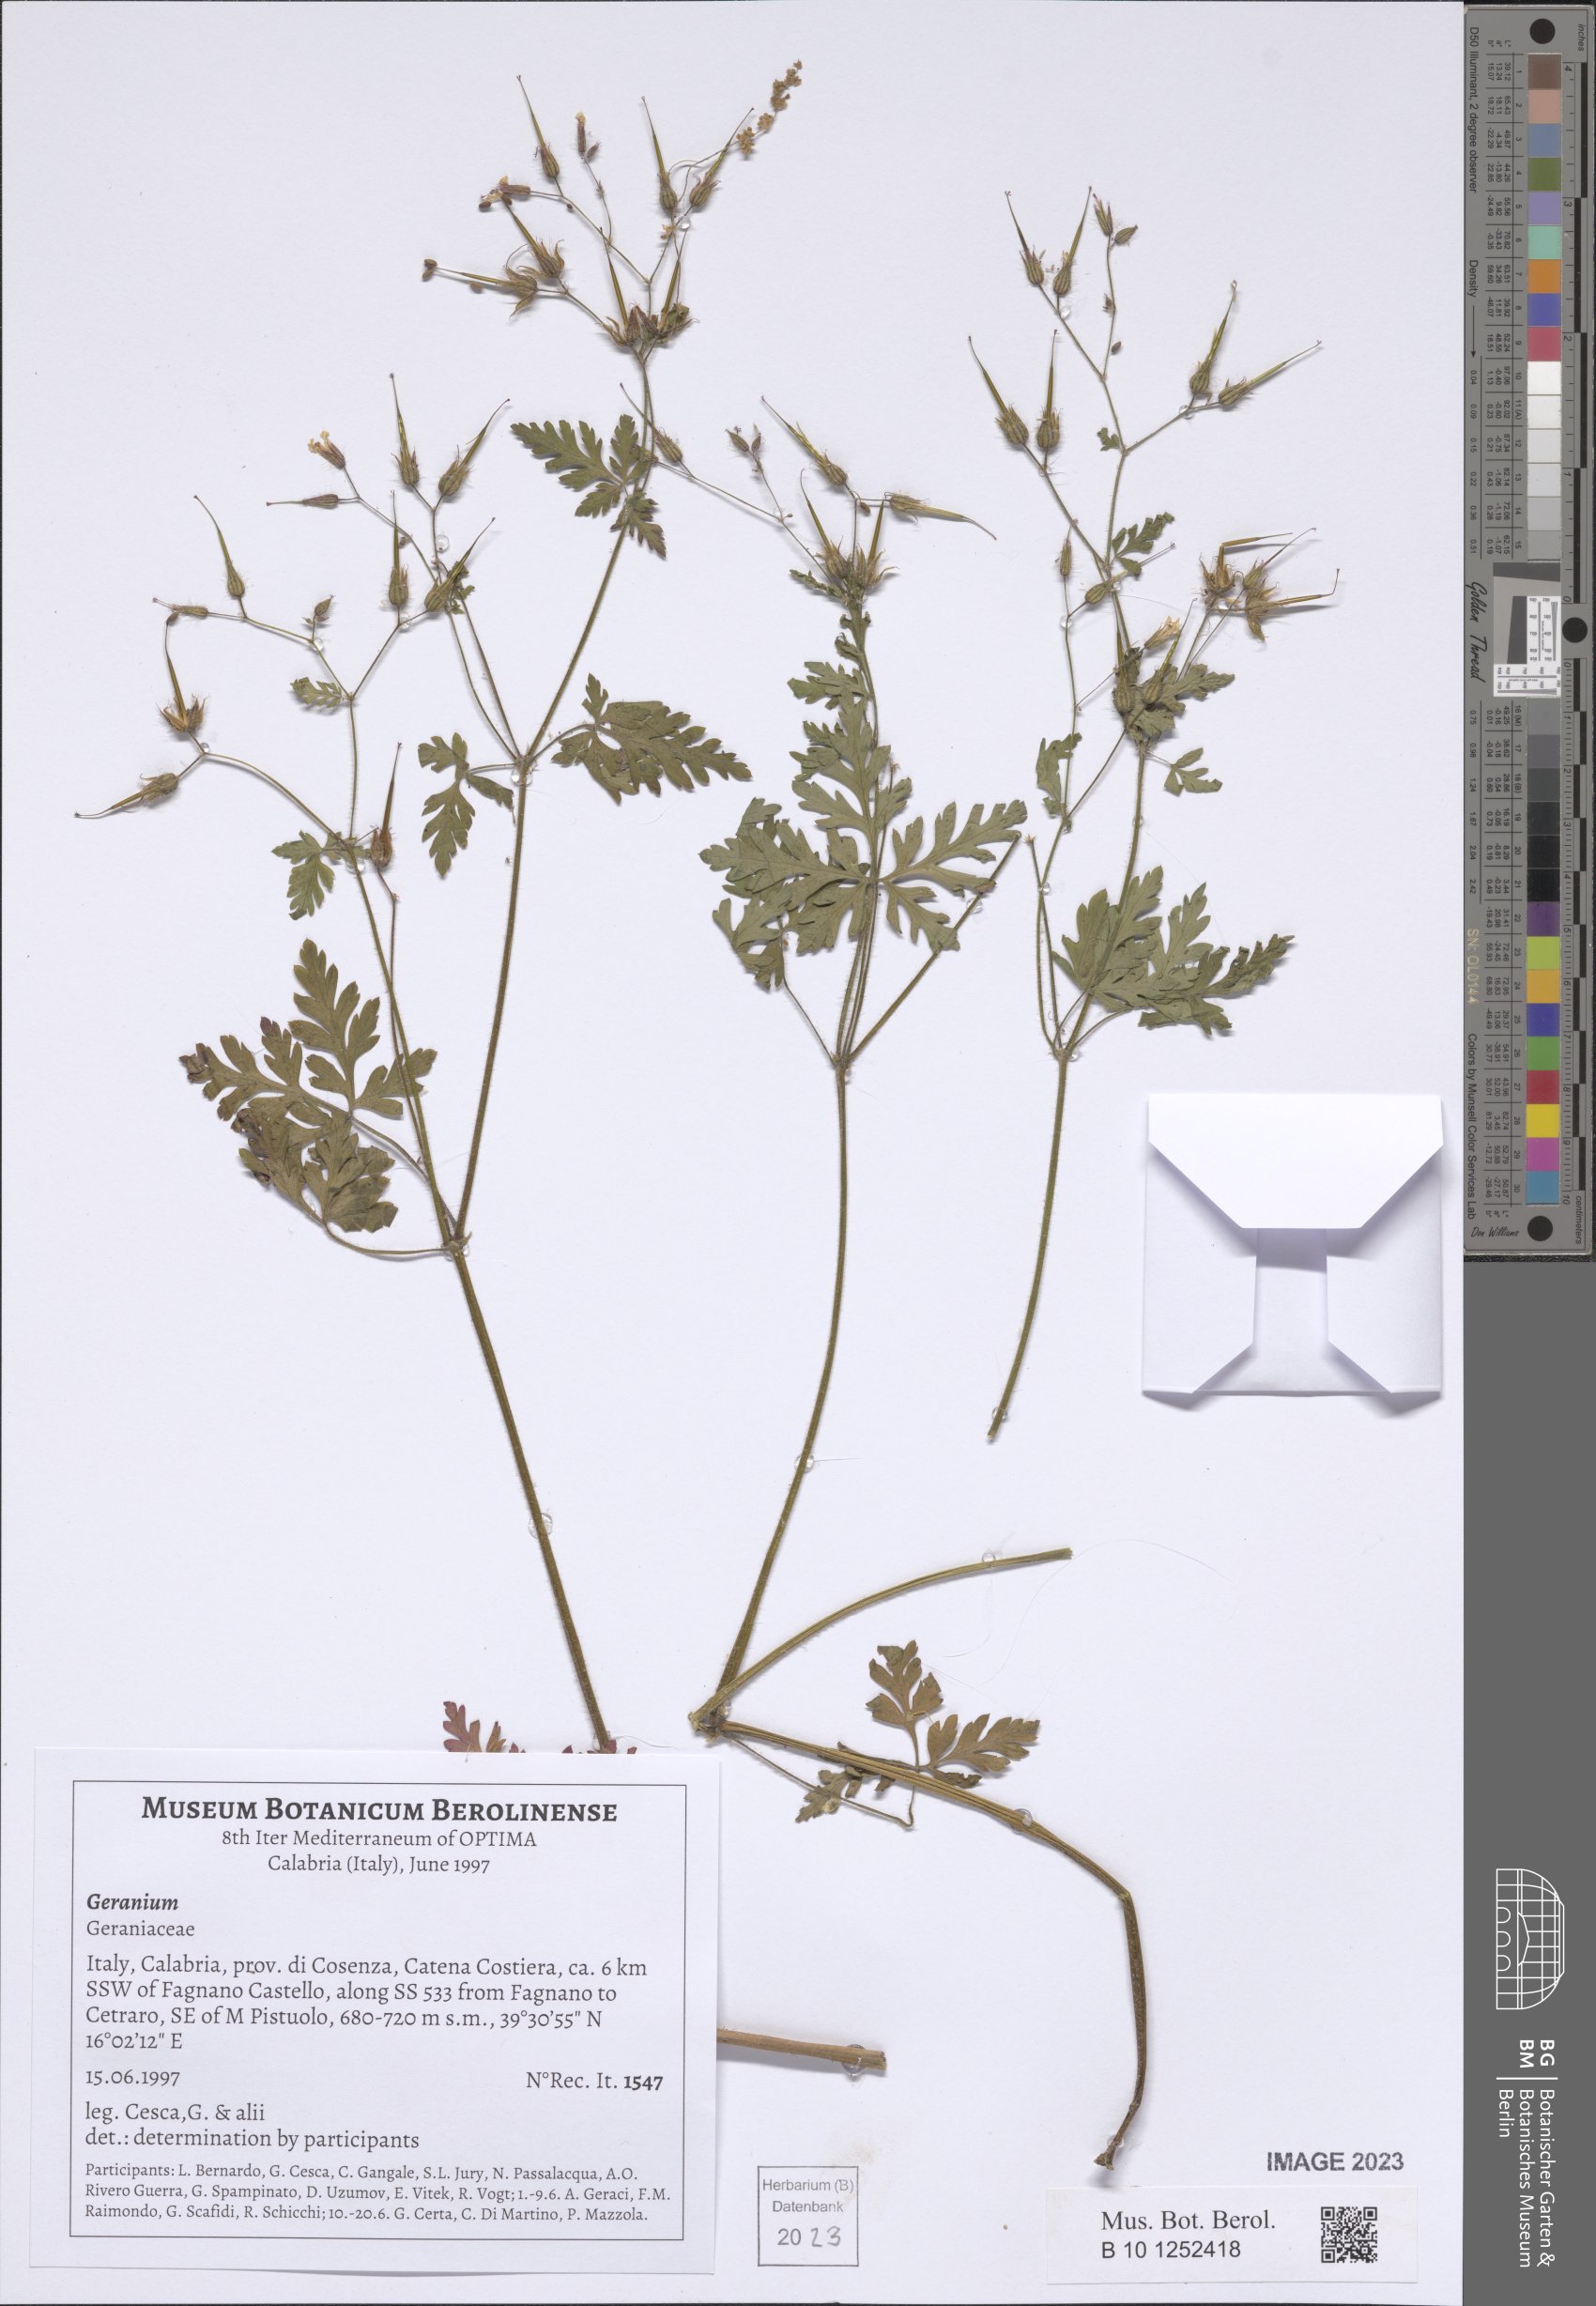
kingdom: Plantae
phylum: Tracheophyta
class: Magnoliopsida
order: Geraniales
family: Geraniaceae
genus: Geranium
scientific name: Geranium
